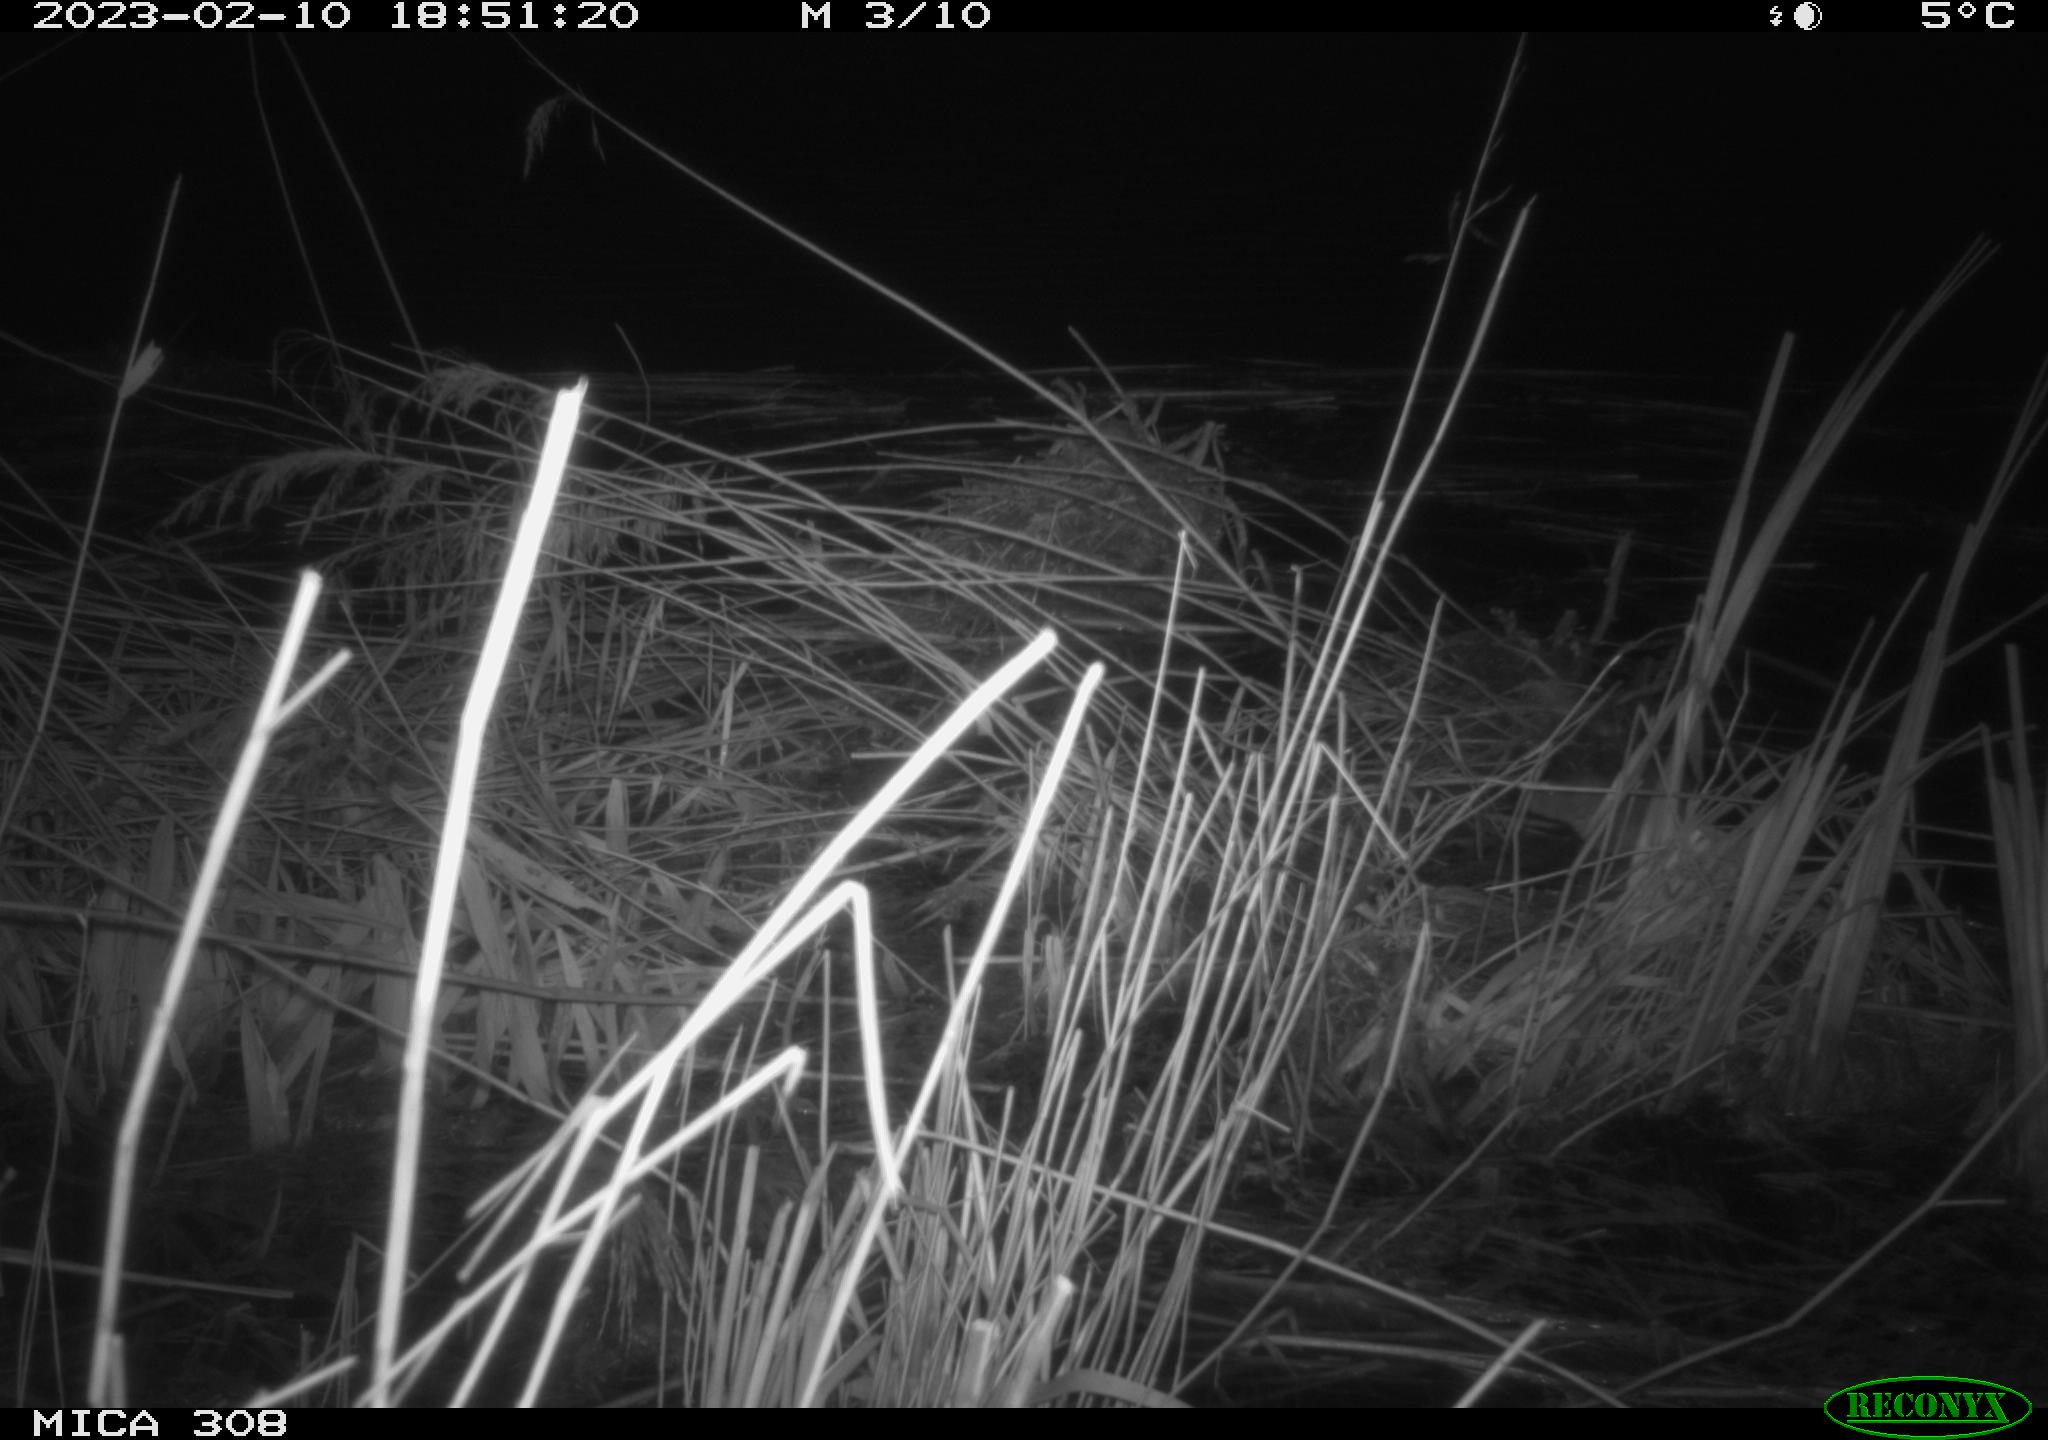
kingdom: Animalia
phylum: Chordata
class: Mammalia
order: Rodentia
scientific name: Rodentia
